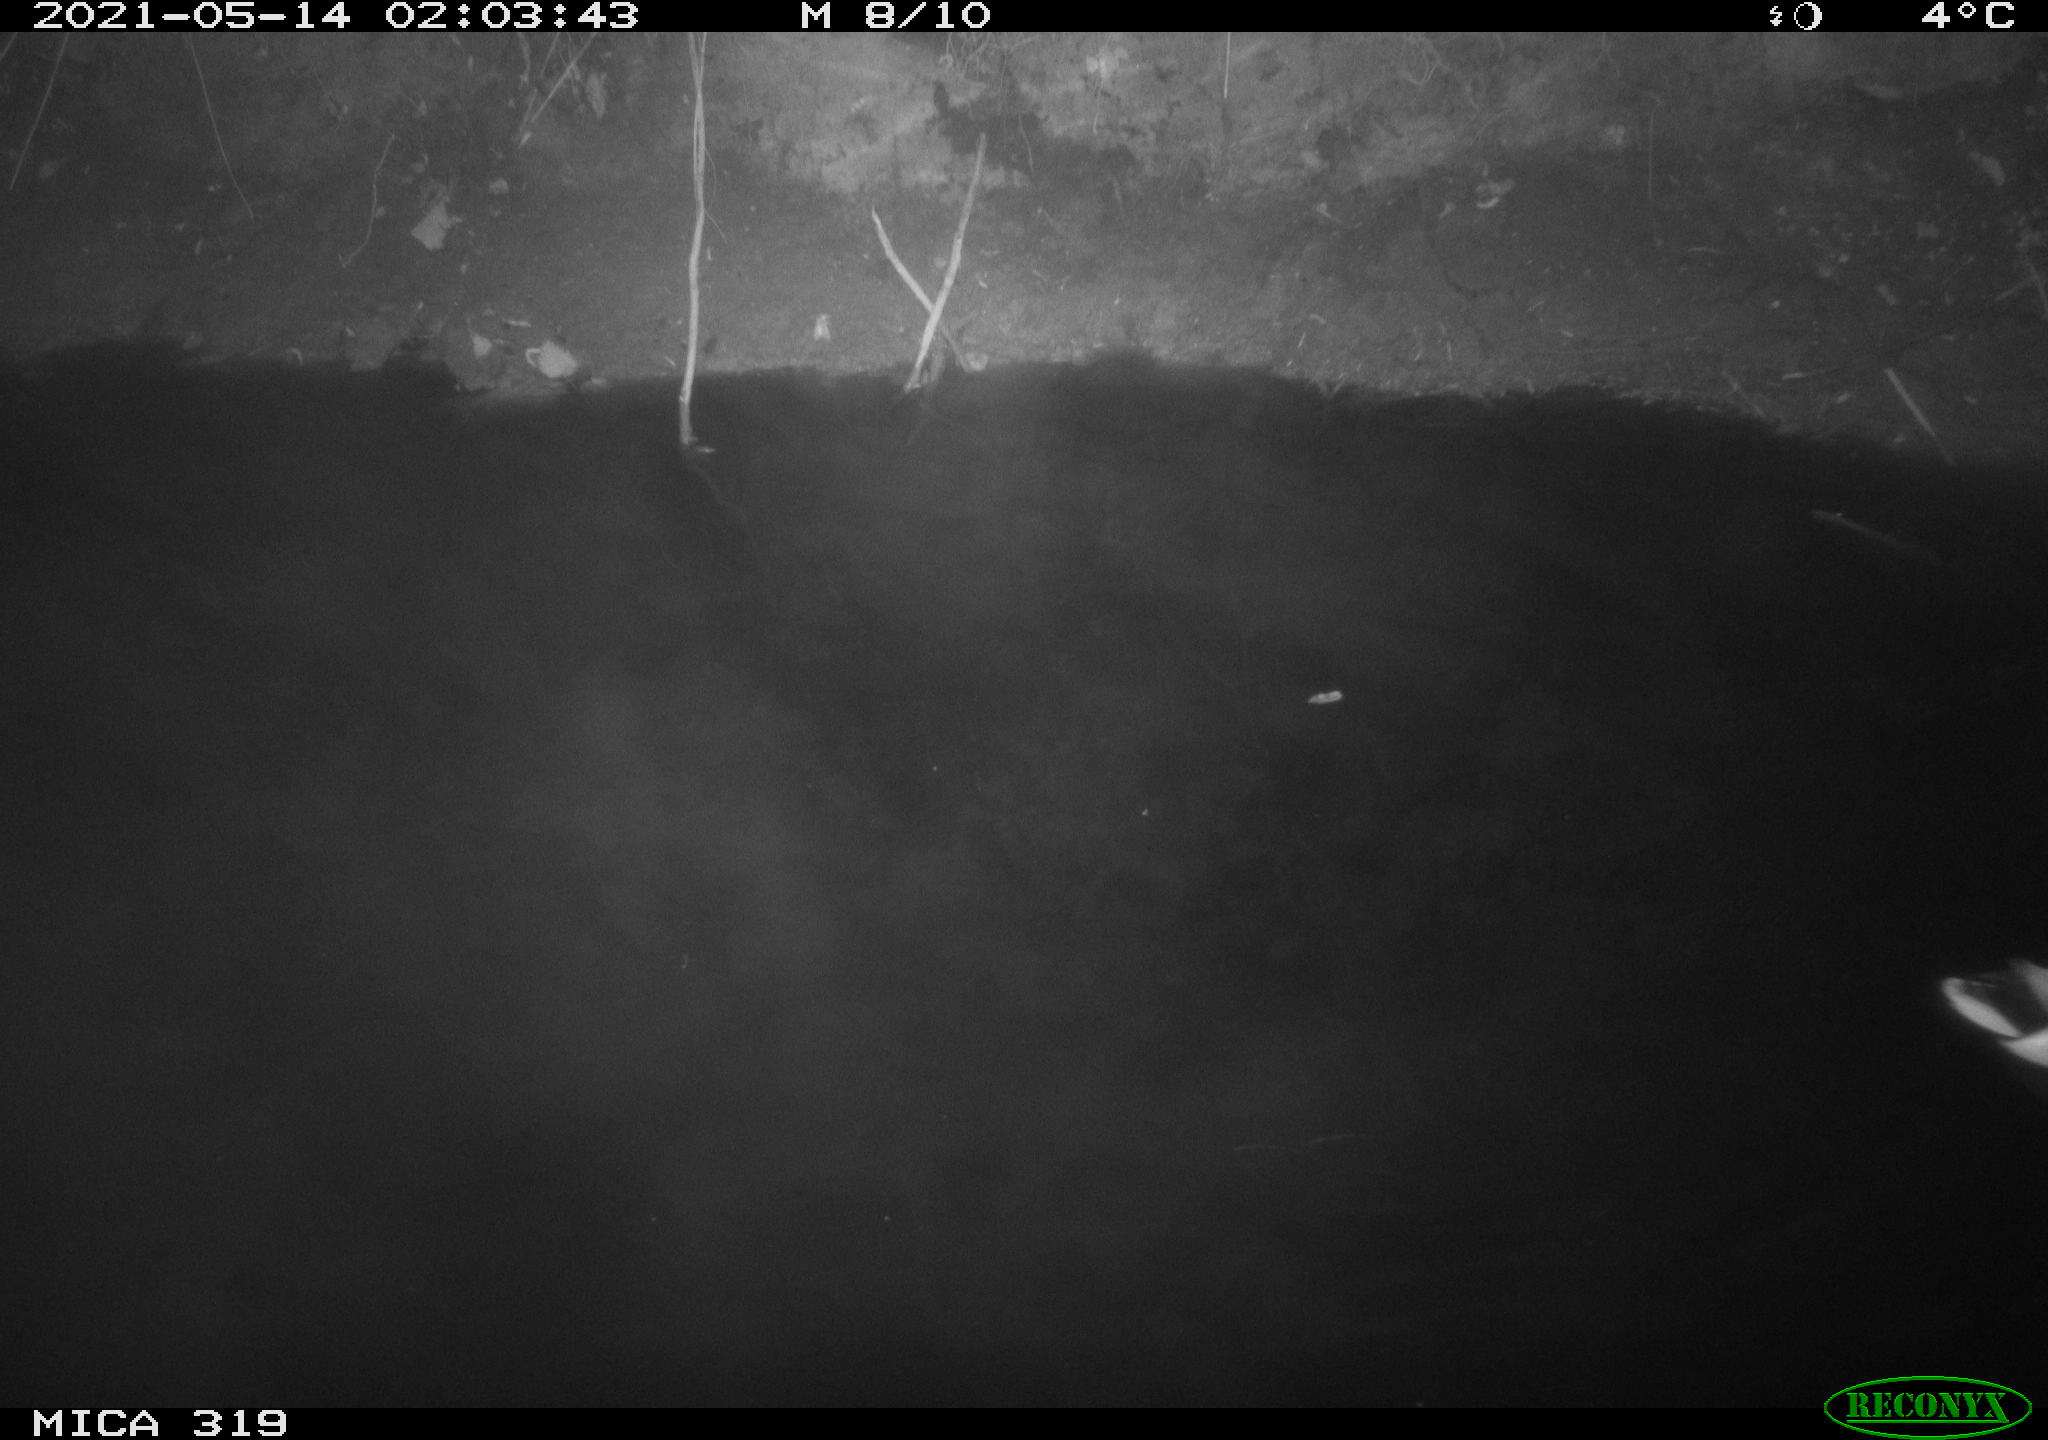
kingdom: Animalia
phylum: Chordata
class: Aves
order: Anseriformes
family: Anatidae
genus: Anas
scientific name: Anas platyrhynchos
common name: Mallard
